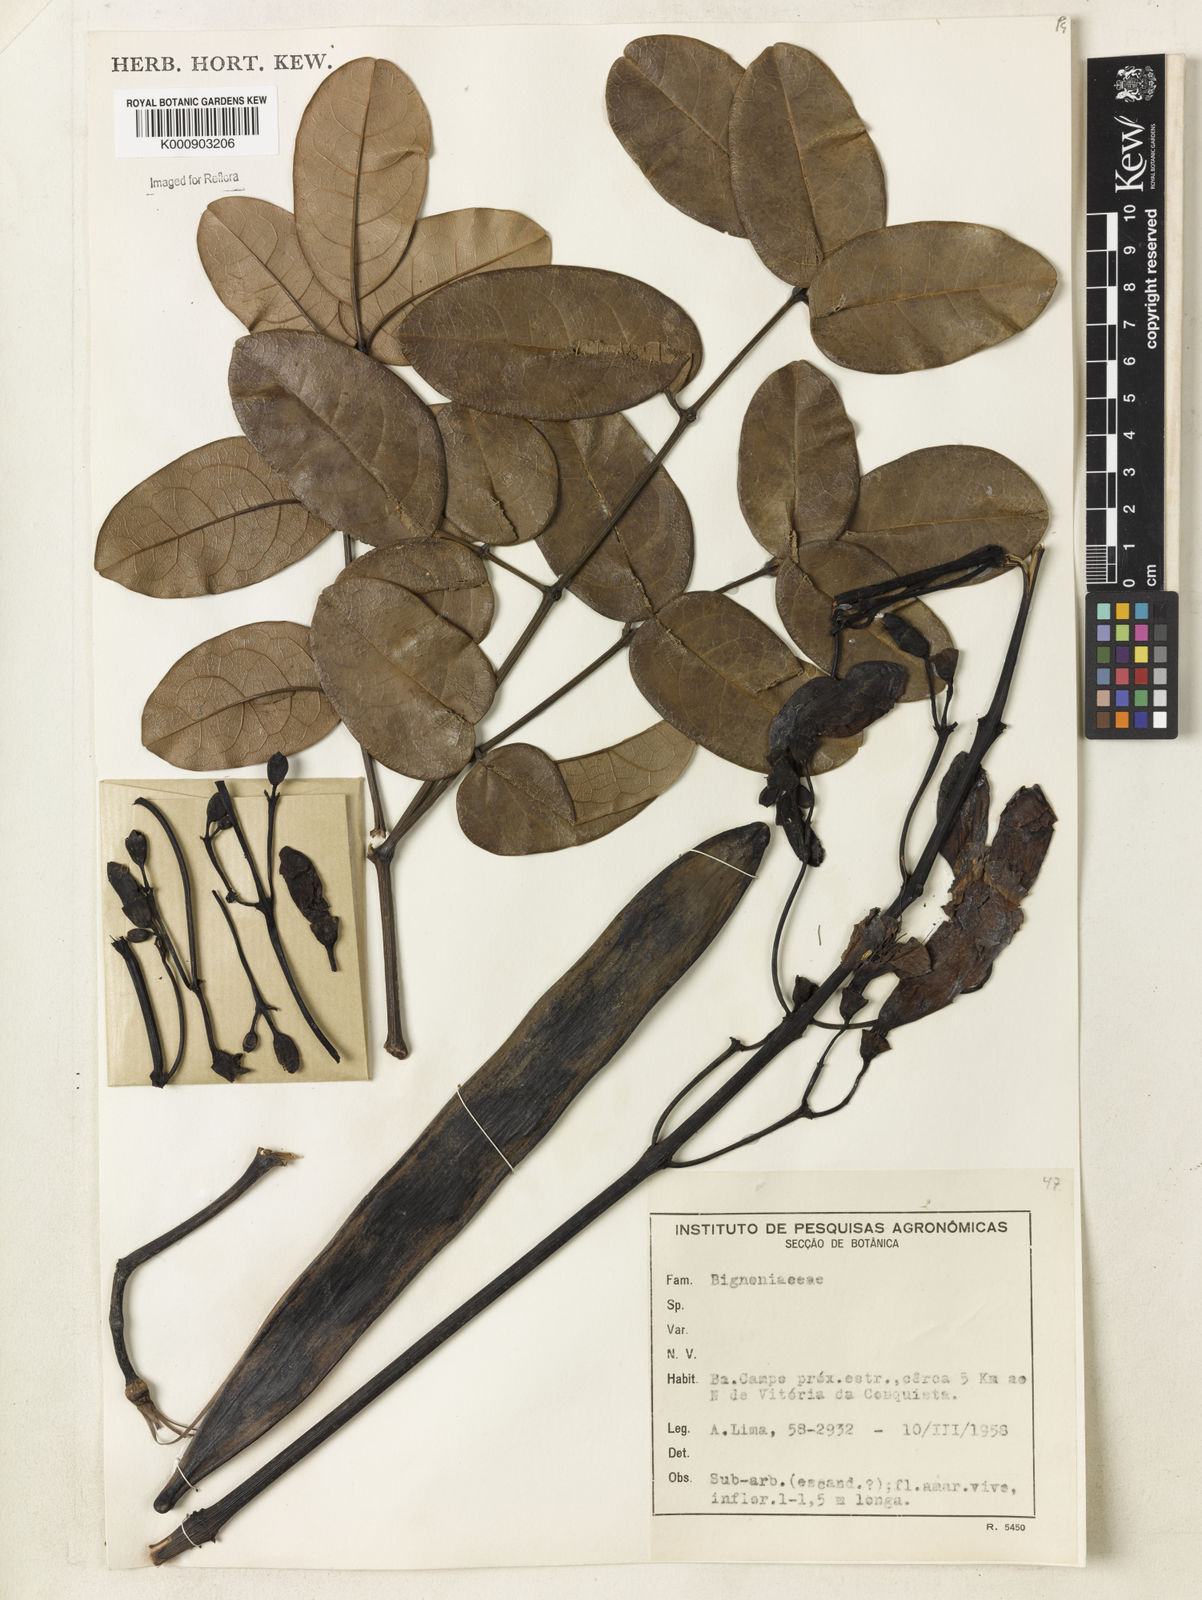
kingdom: Plantae
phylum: Tracheophyta
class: Magnoliopsida
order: Lamiales
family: Bignoniaceae
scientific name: Bignoniaceae
